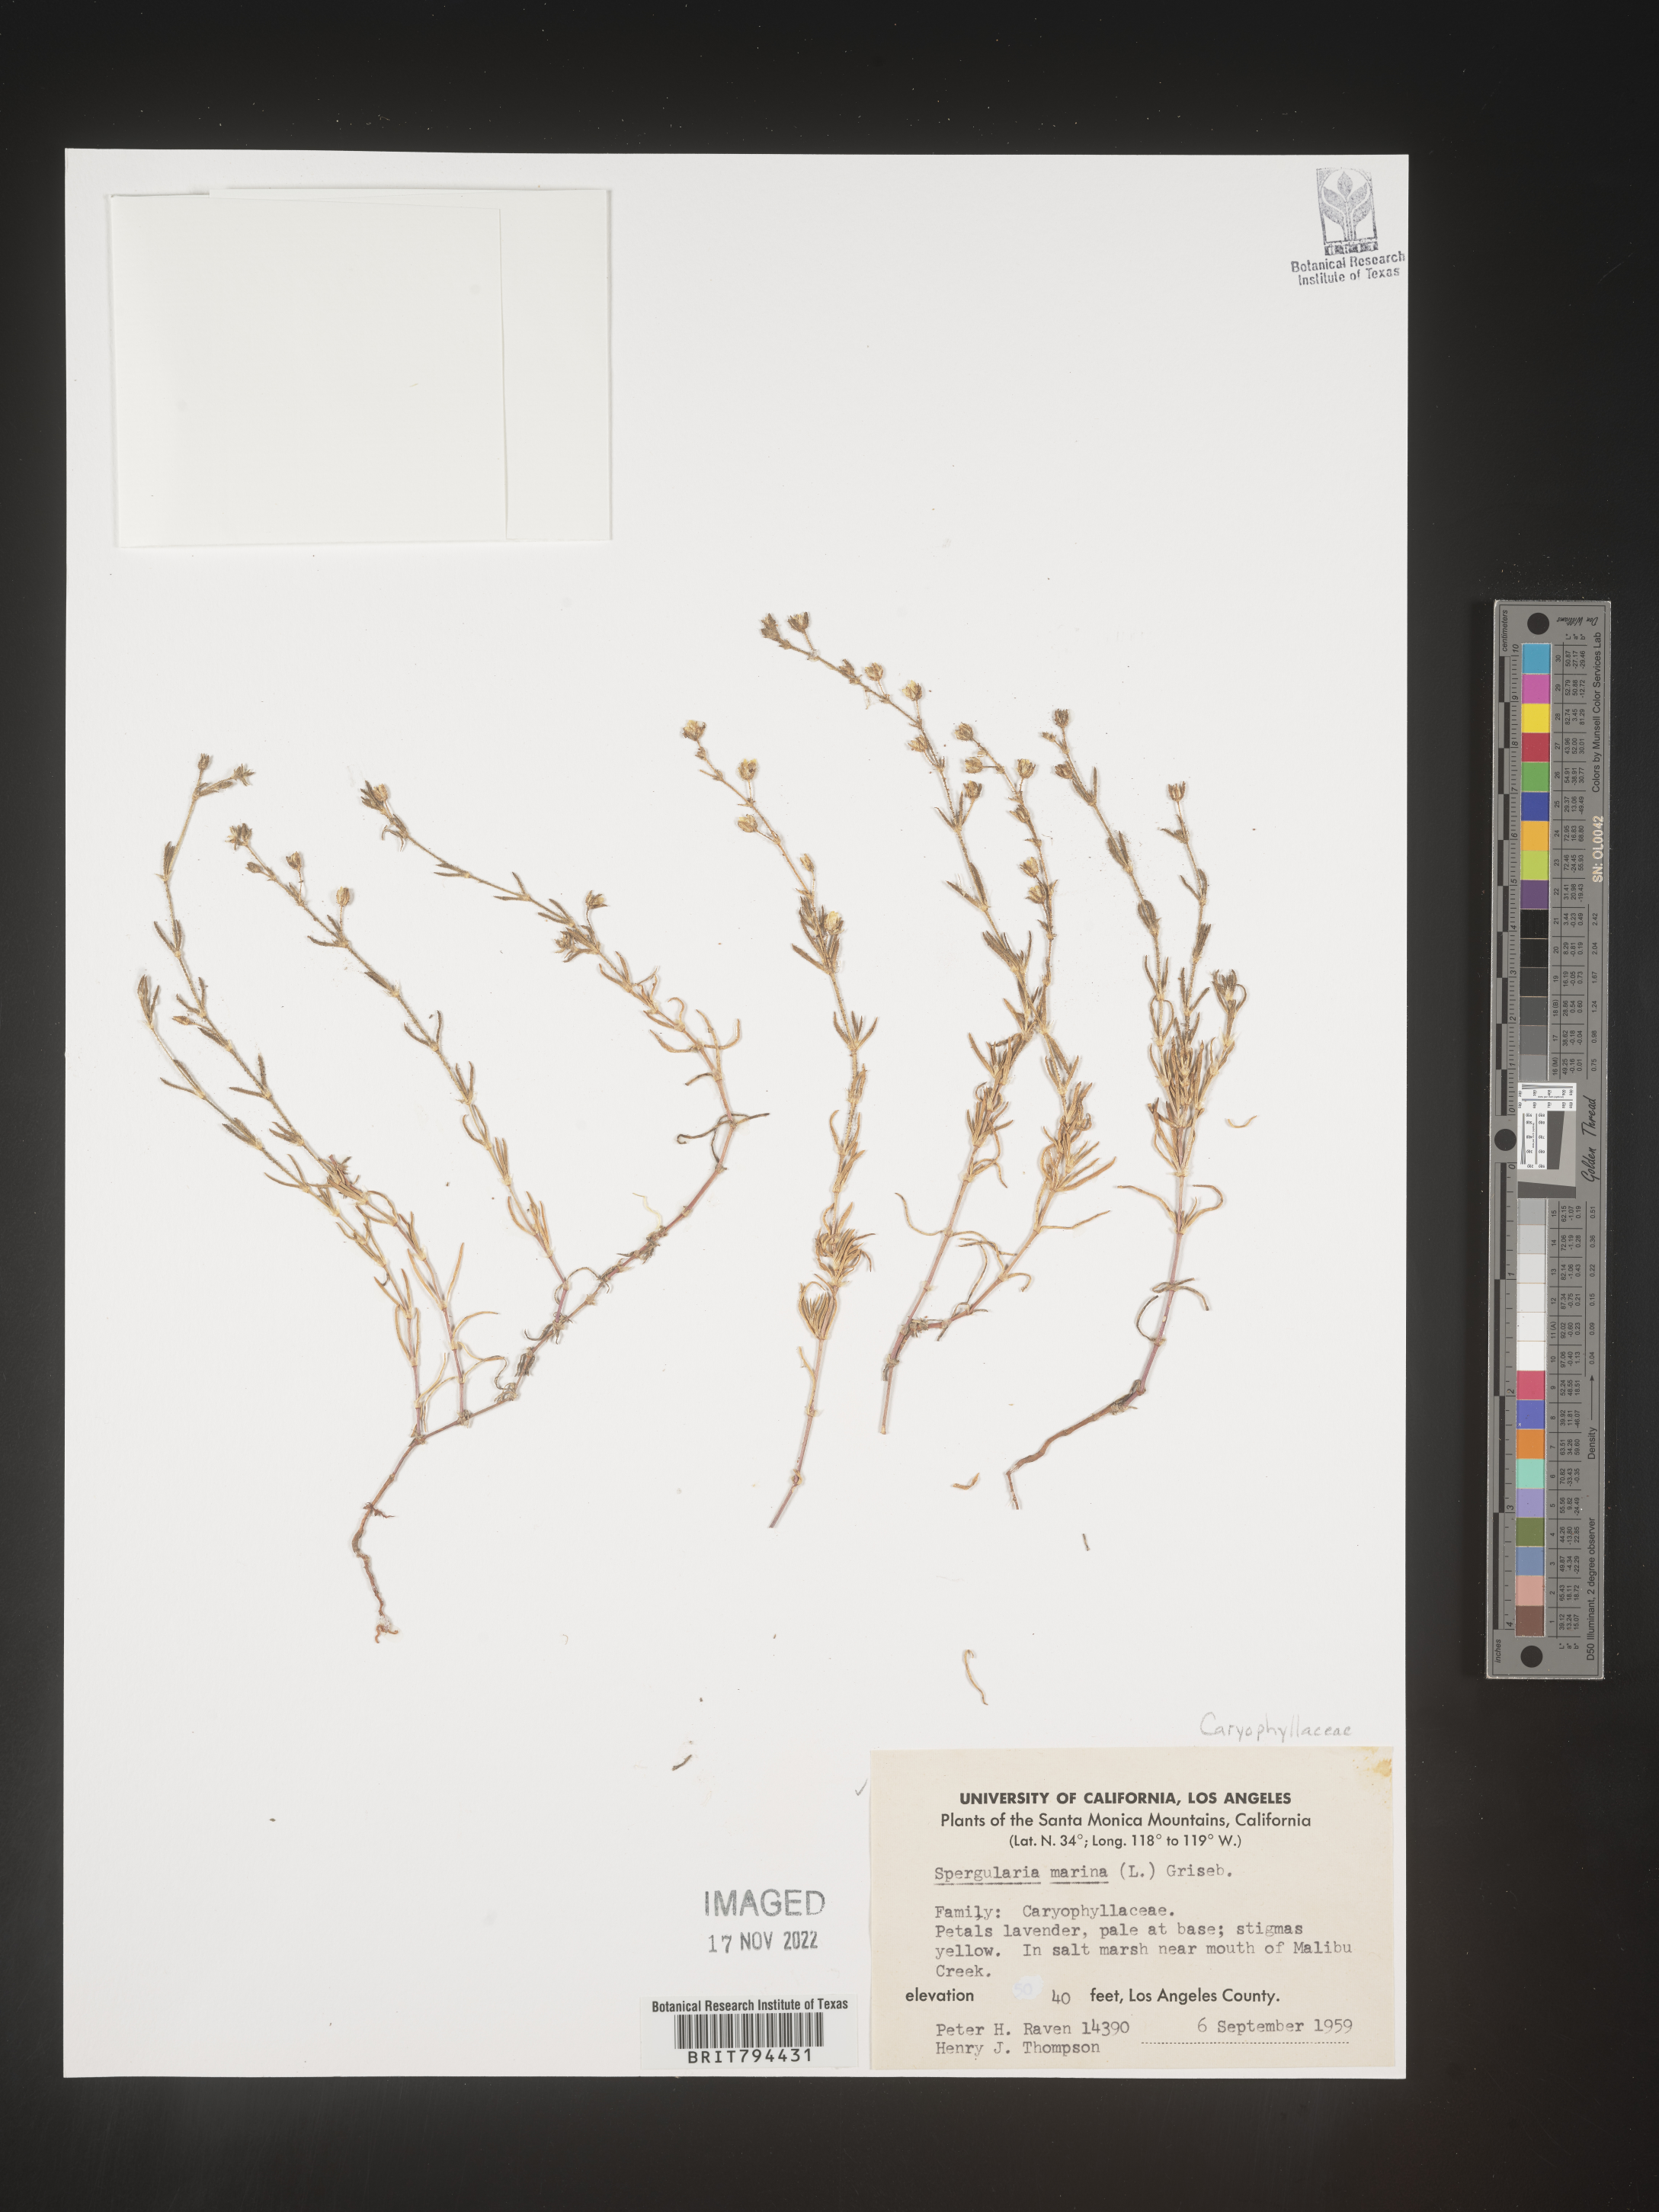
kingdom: Plantae
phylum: Tracheophyta
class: Magnoliopsida
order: Caryophyllales
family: Caryophyllaceae
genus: Spergularia
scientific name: Spergularia marina
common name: Lesser sea-spurrey
